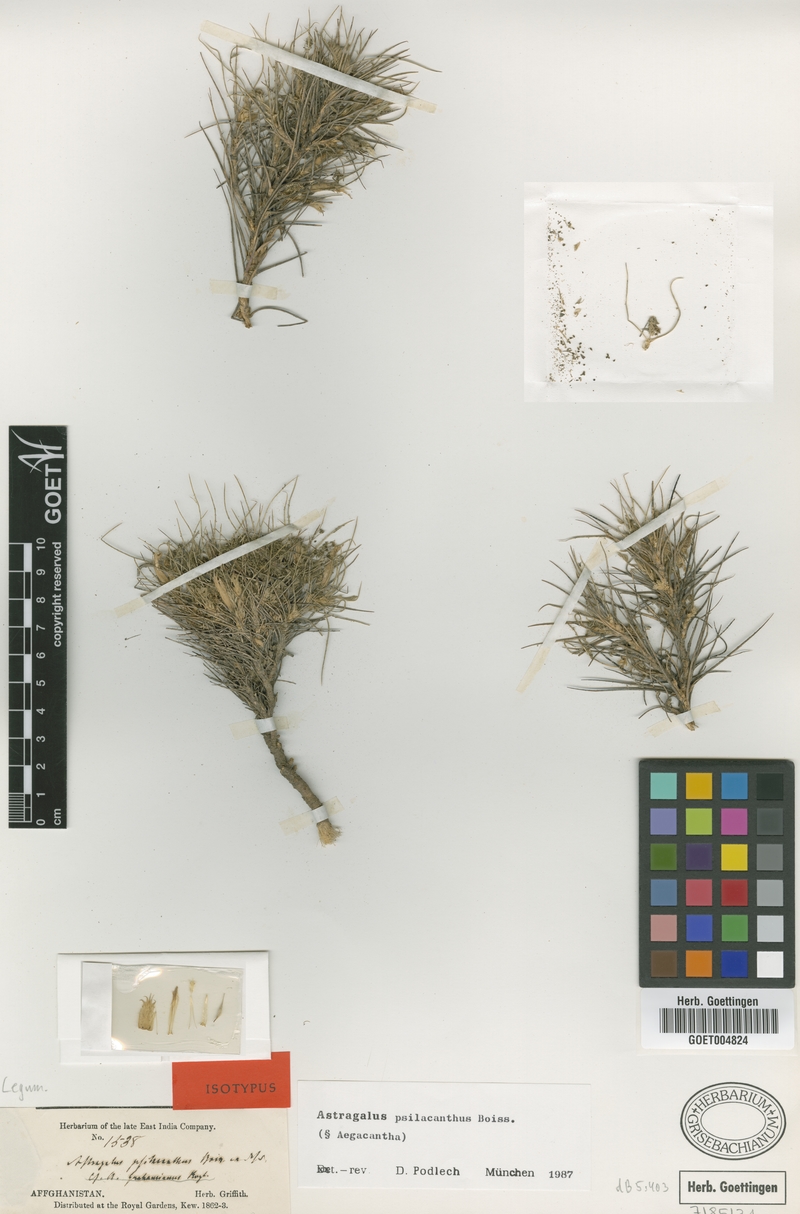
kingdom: Plantae
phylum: Tracheophyta
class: Magnoliopsida
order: Fabales
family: Fabaceae
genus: Astragalus
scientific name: Astragalus psilacanthus
